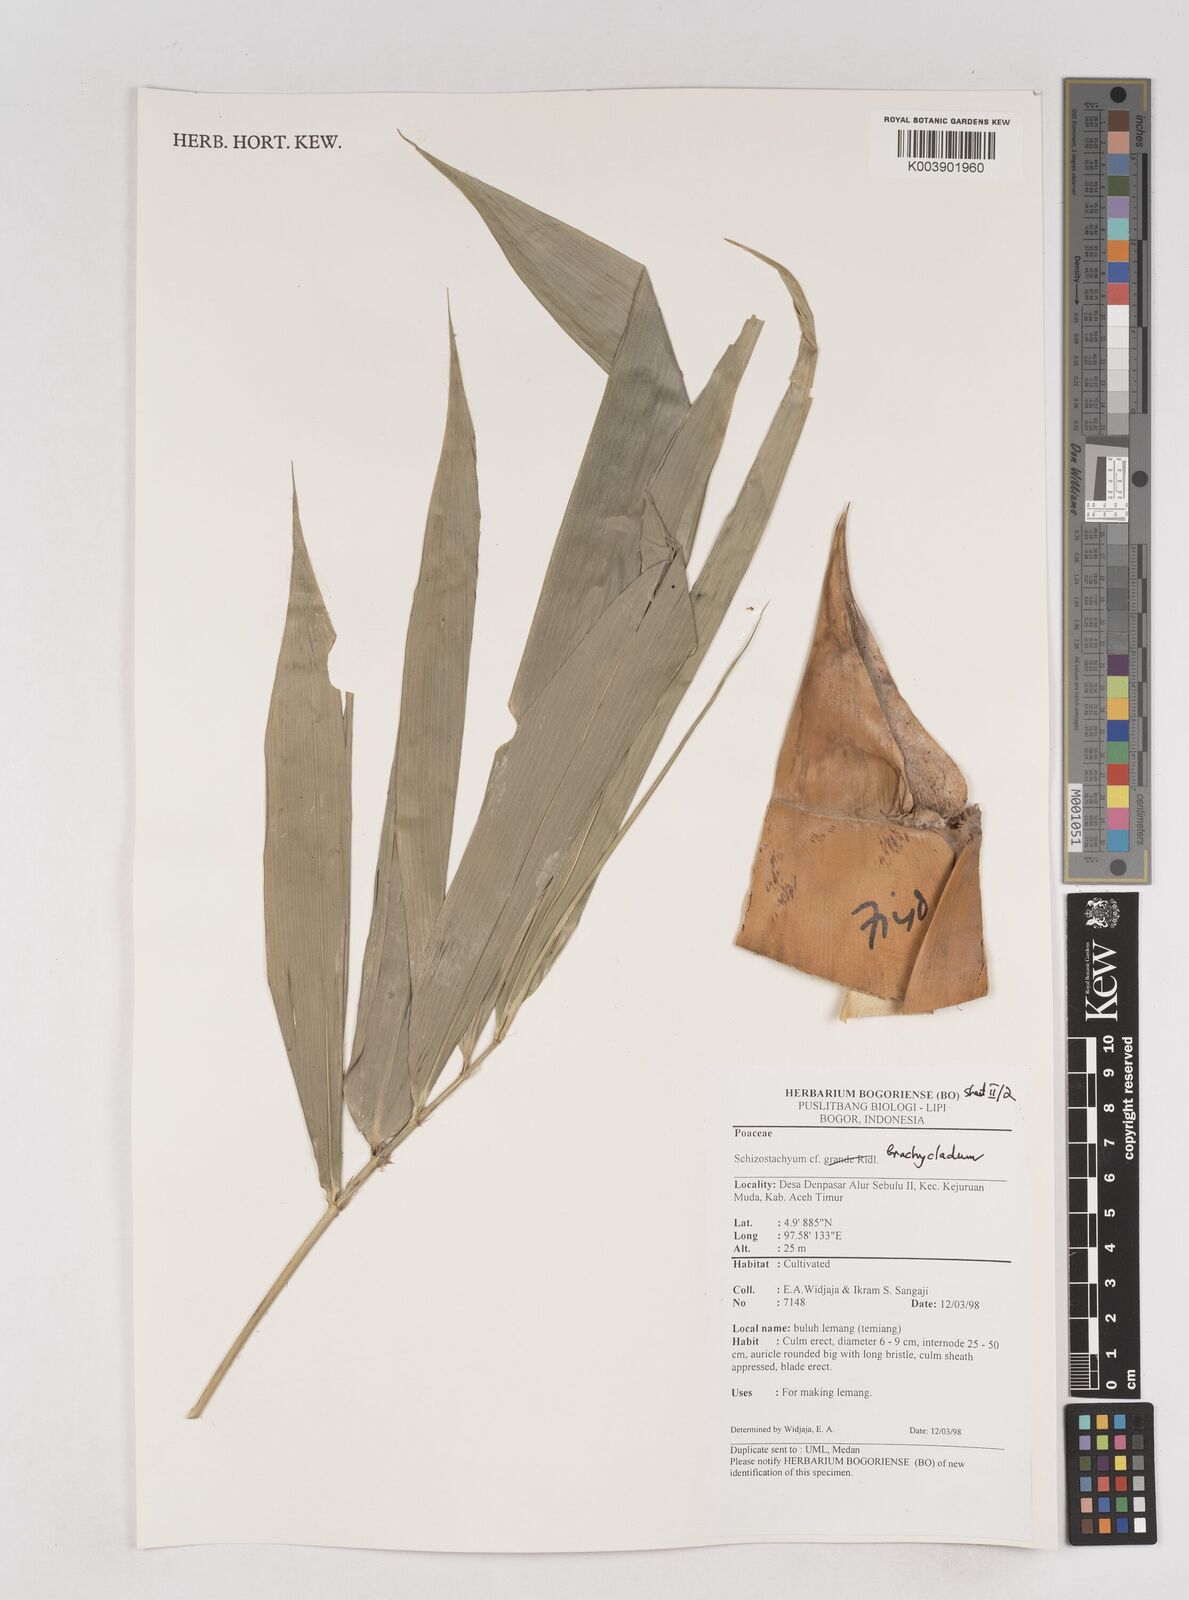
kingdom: Plantae
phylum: Tracheophyta
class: Liliopsida
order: Poales
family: Poaceae
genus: Schizostachyum
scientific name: Schizostachyum brachycladum
